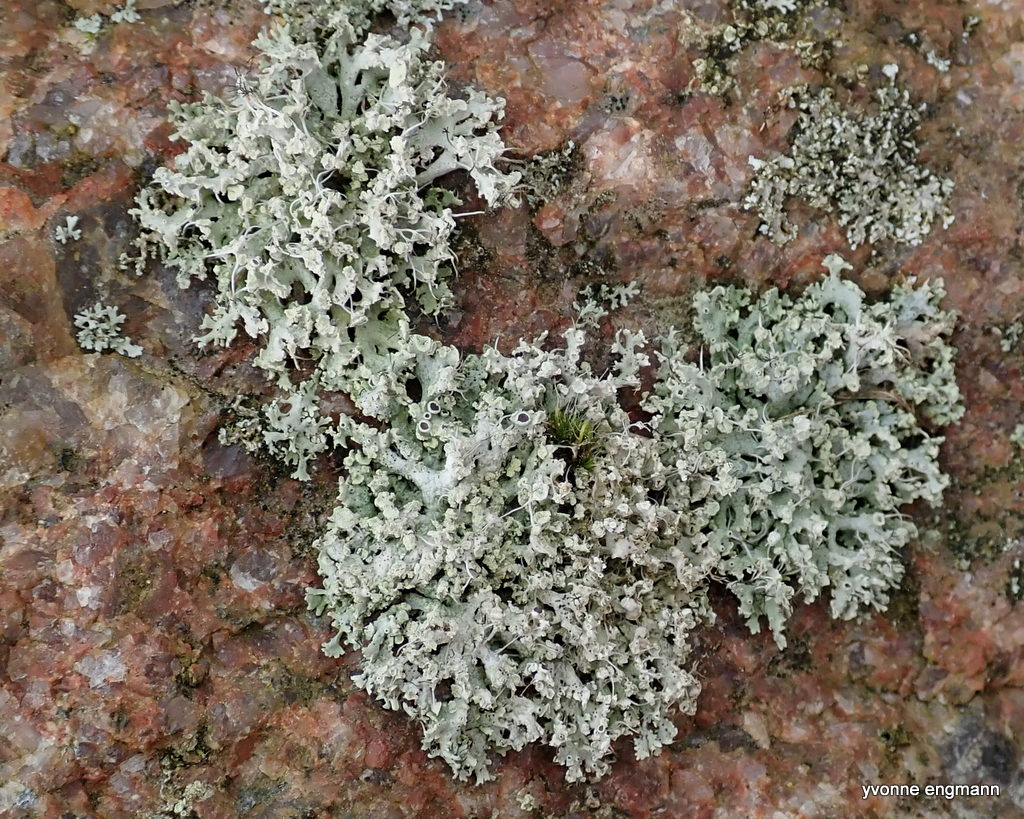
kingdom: Fungi
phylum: Ascomycota
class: Lecanoromycetes
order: Caliciales
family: Physciaceae
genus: Physcia
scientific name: Physcia tenella
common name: spæd rosetlav
